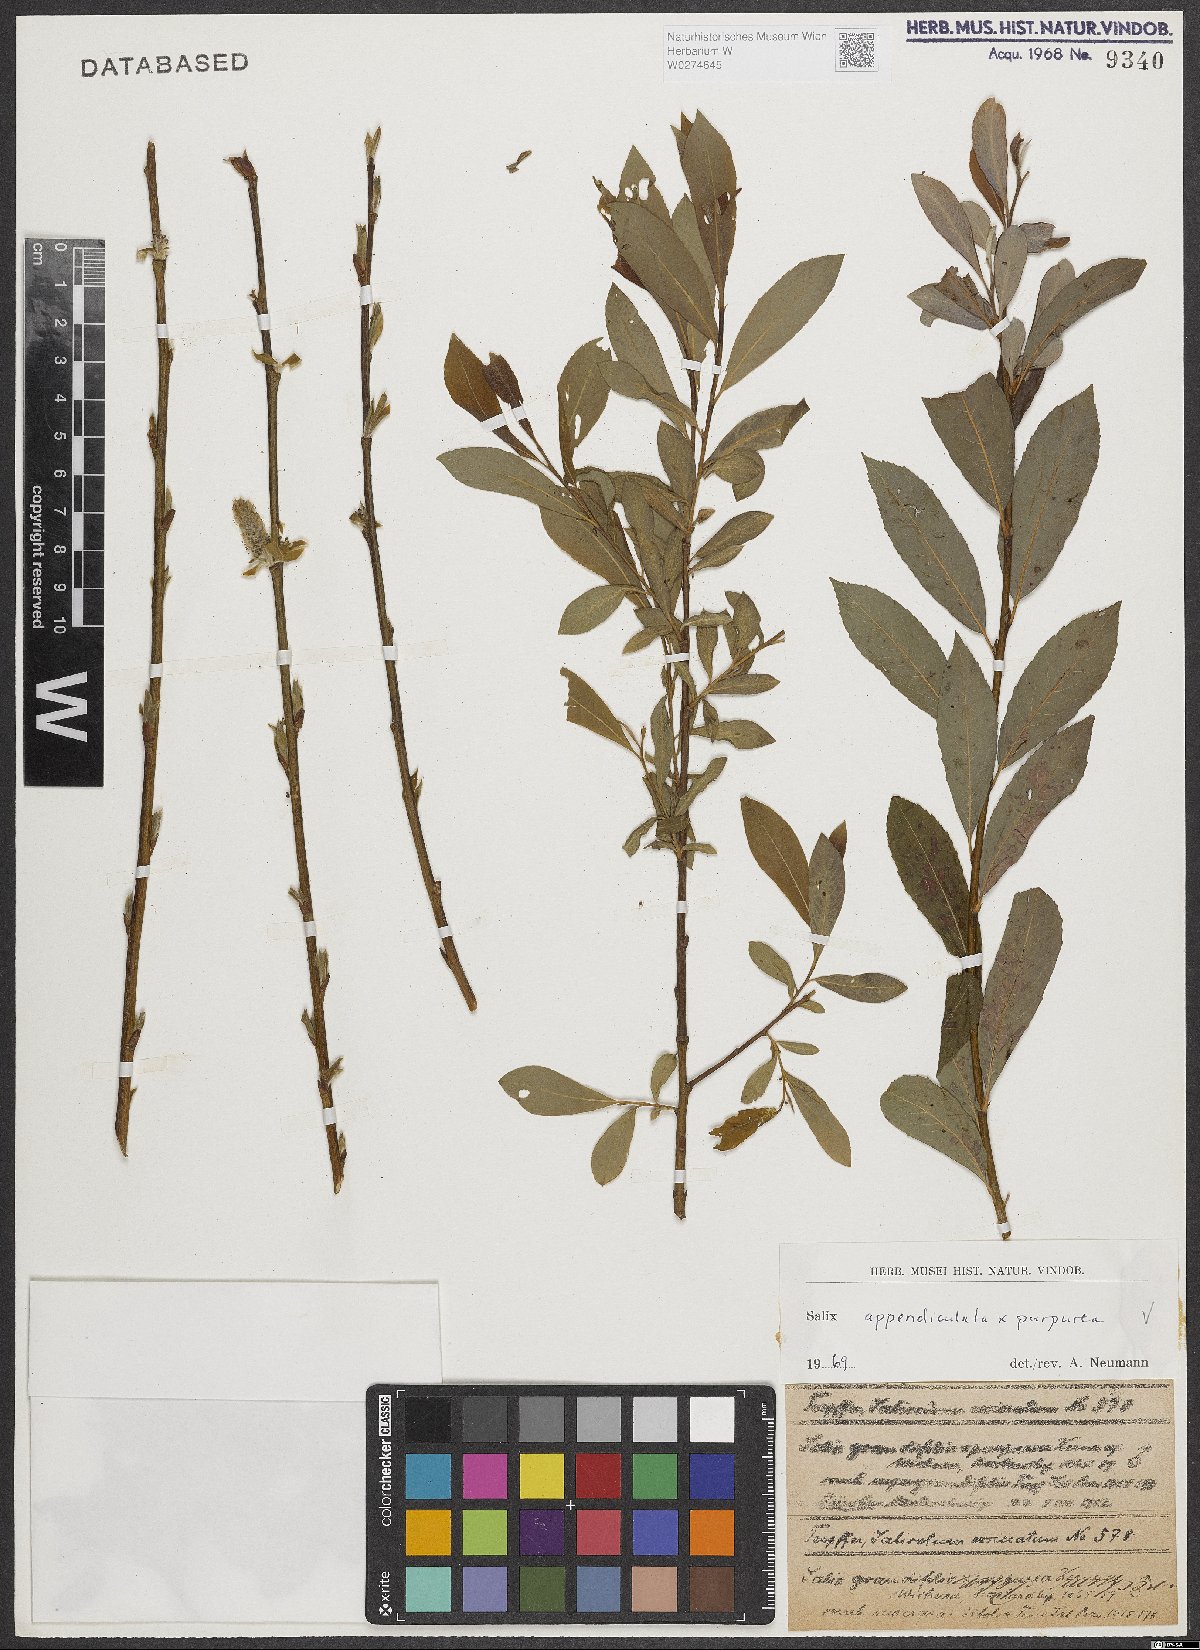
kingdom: Plantae
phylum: Tracheophyta
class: Magnoliopsida
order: Malpighiales
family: Salicaceae
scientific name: Salicaceae
